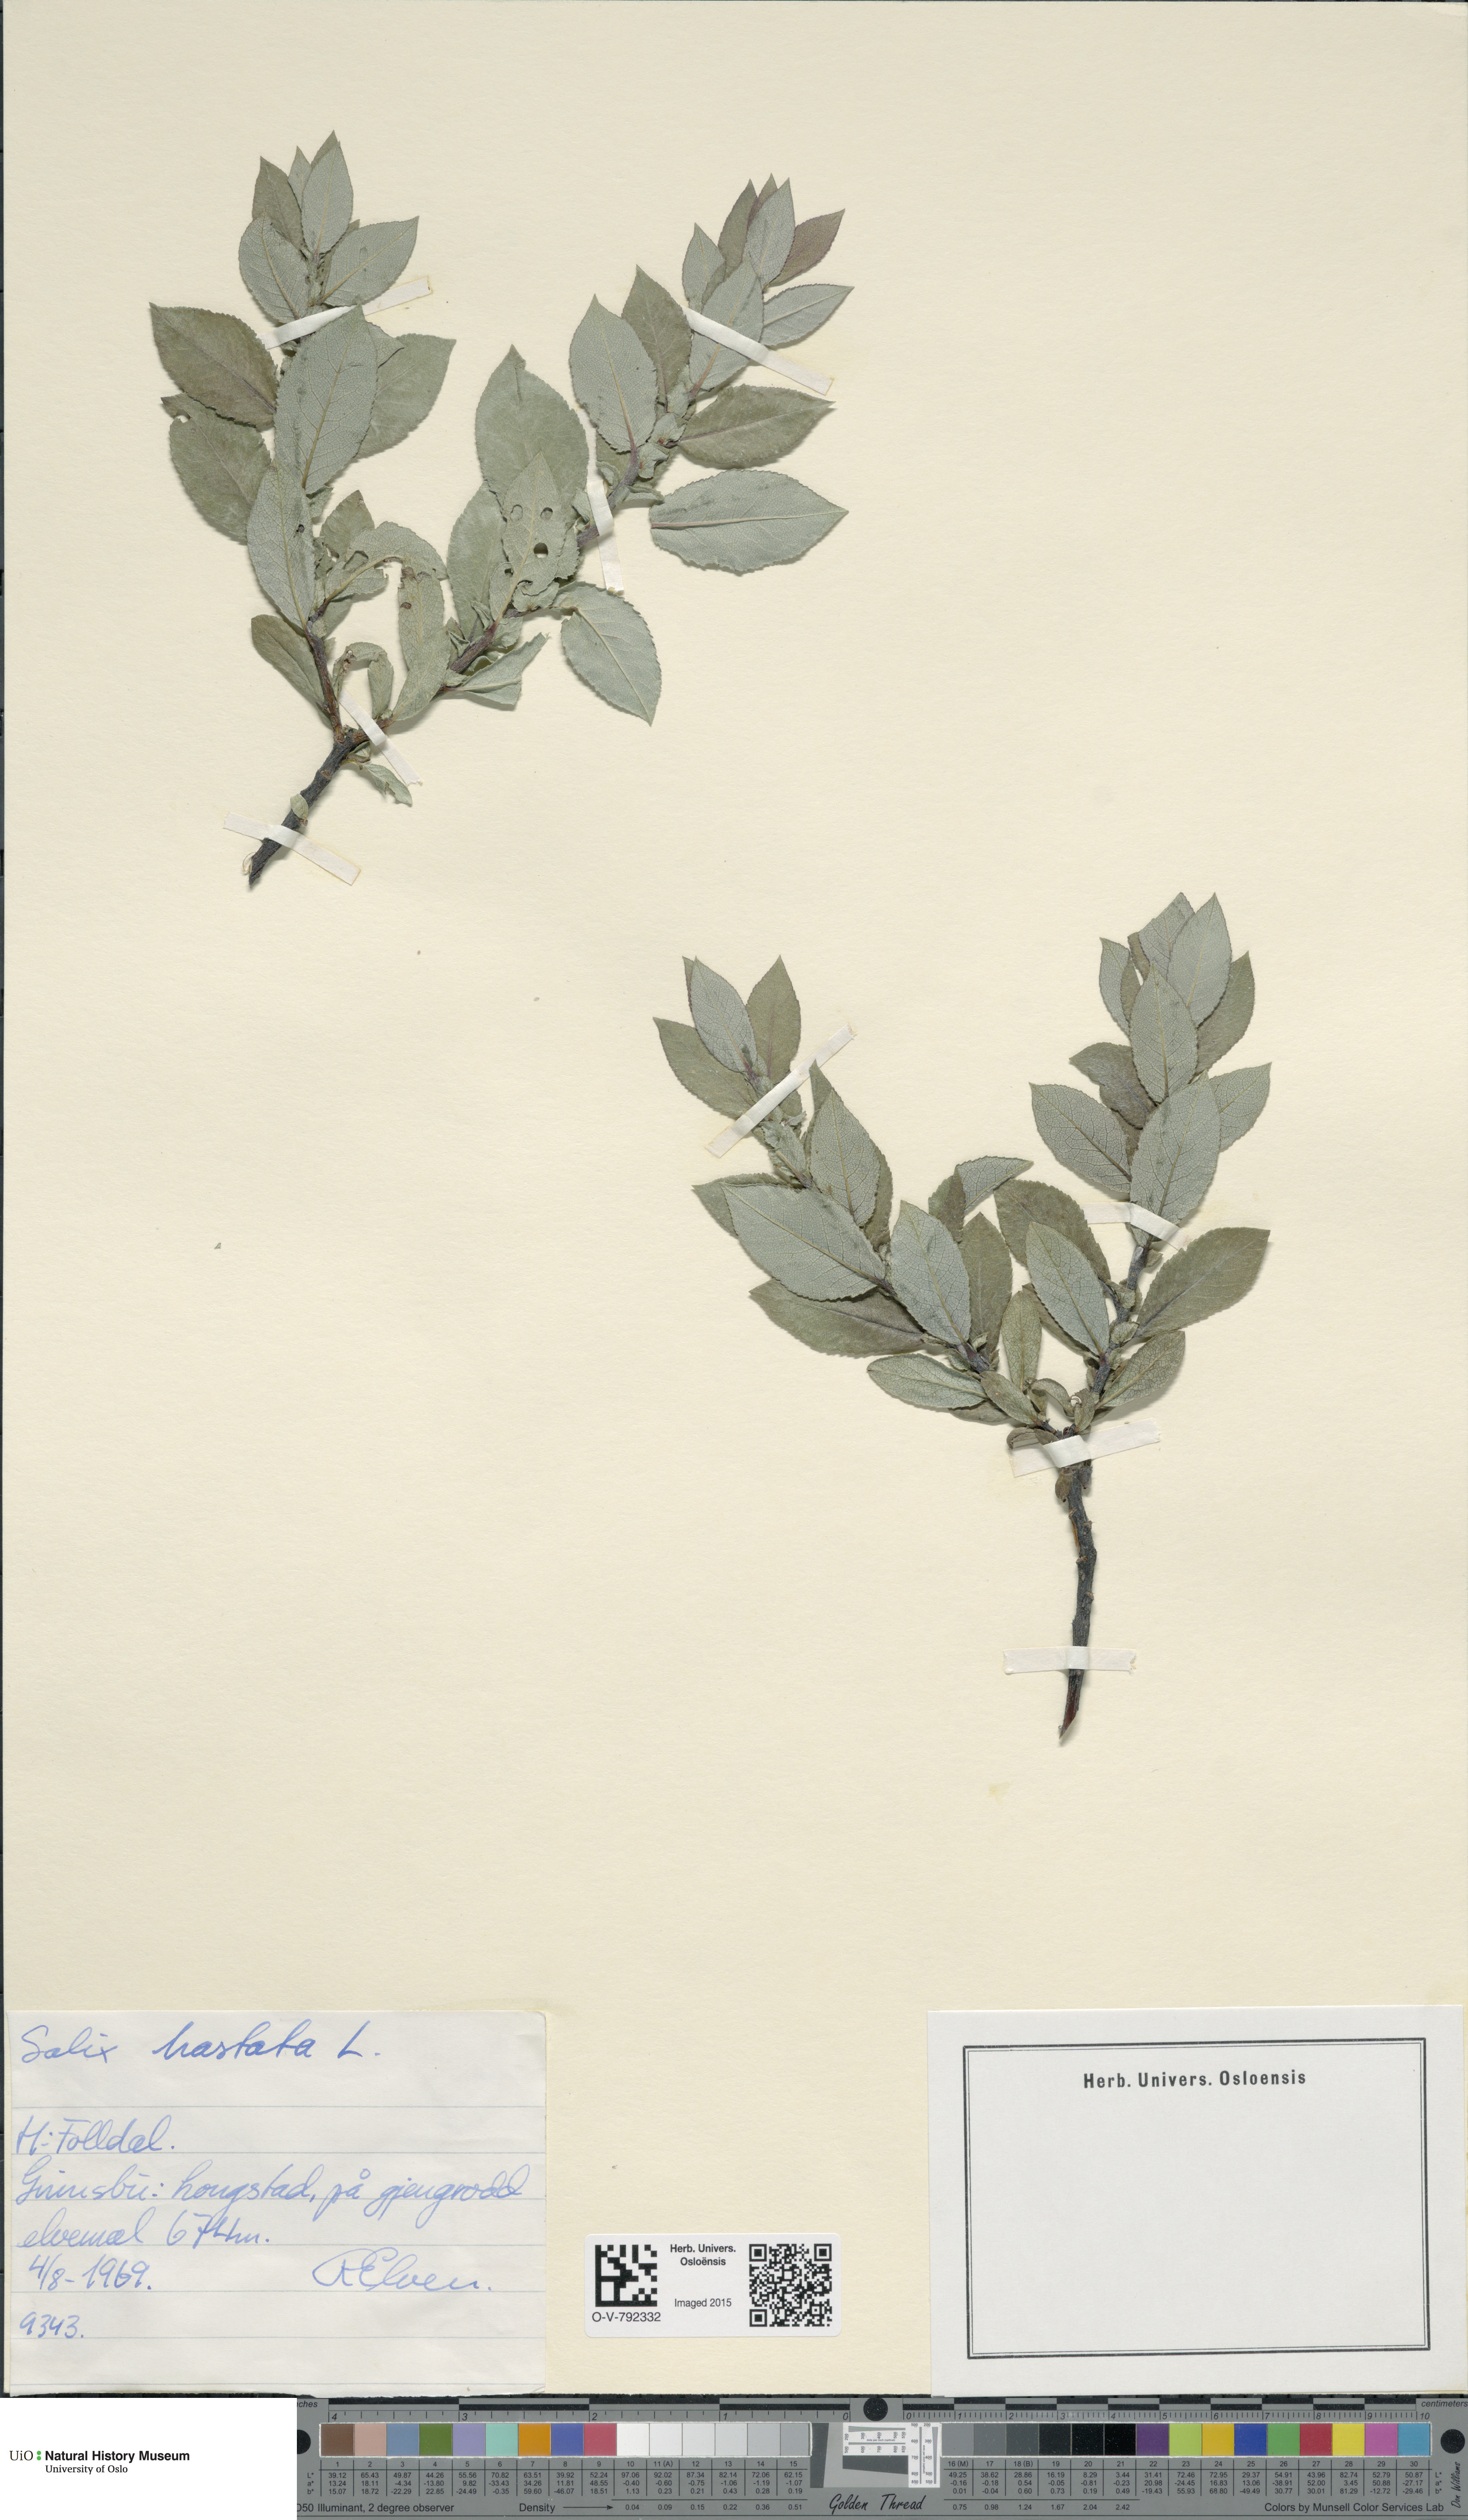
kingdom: Plantae
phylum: Tracheophyta
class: Magnoliopsida
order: Malpighiales
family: Salicaceae
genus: Salix
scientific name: Salix hastata
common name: Halberd willow
